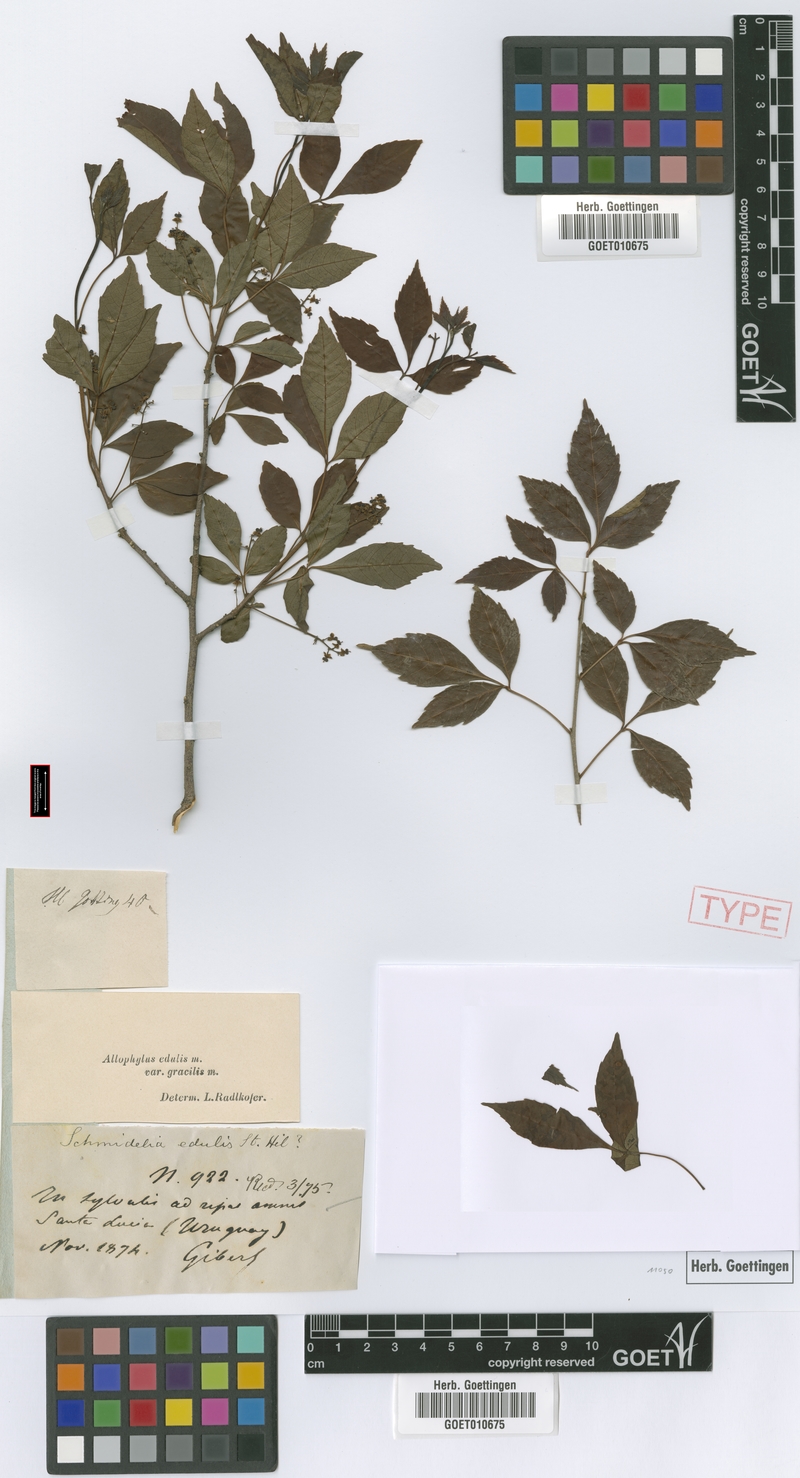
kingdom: Plantae
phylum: Tracheophyta
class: Magnoliopsida
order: Sapindales
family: Sapindaceae
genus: Allophylus
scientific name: Allophylus edulis
